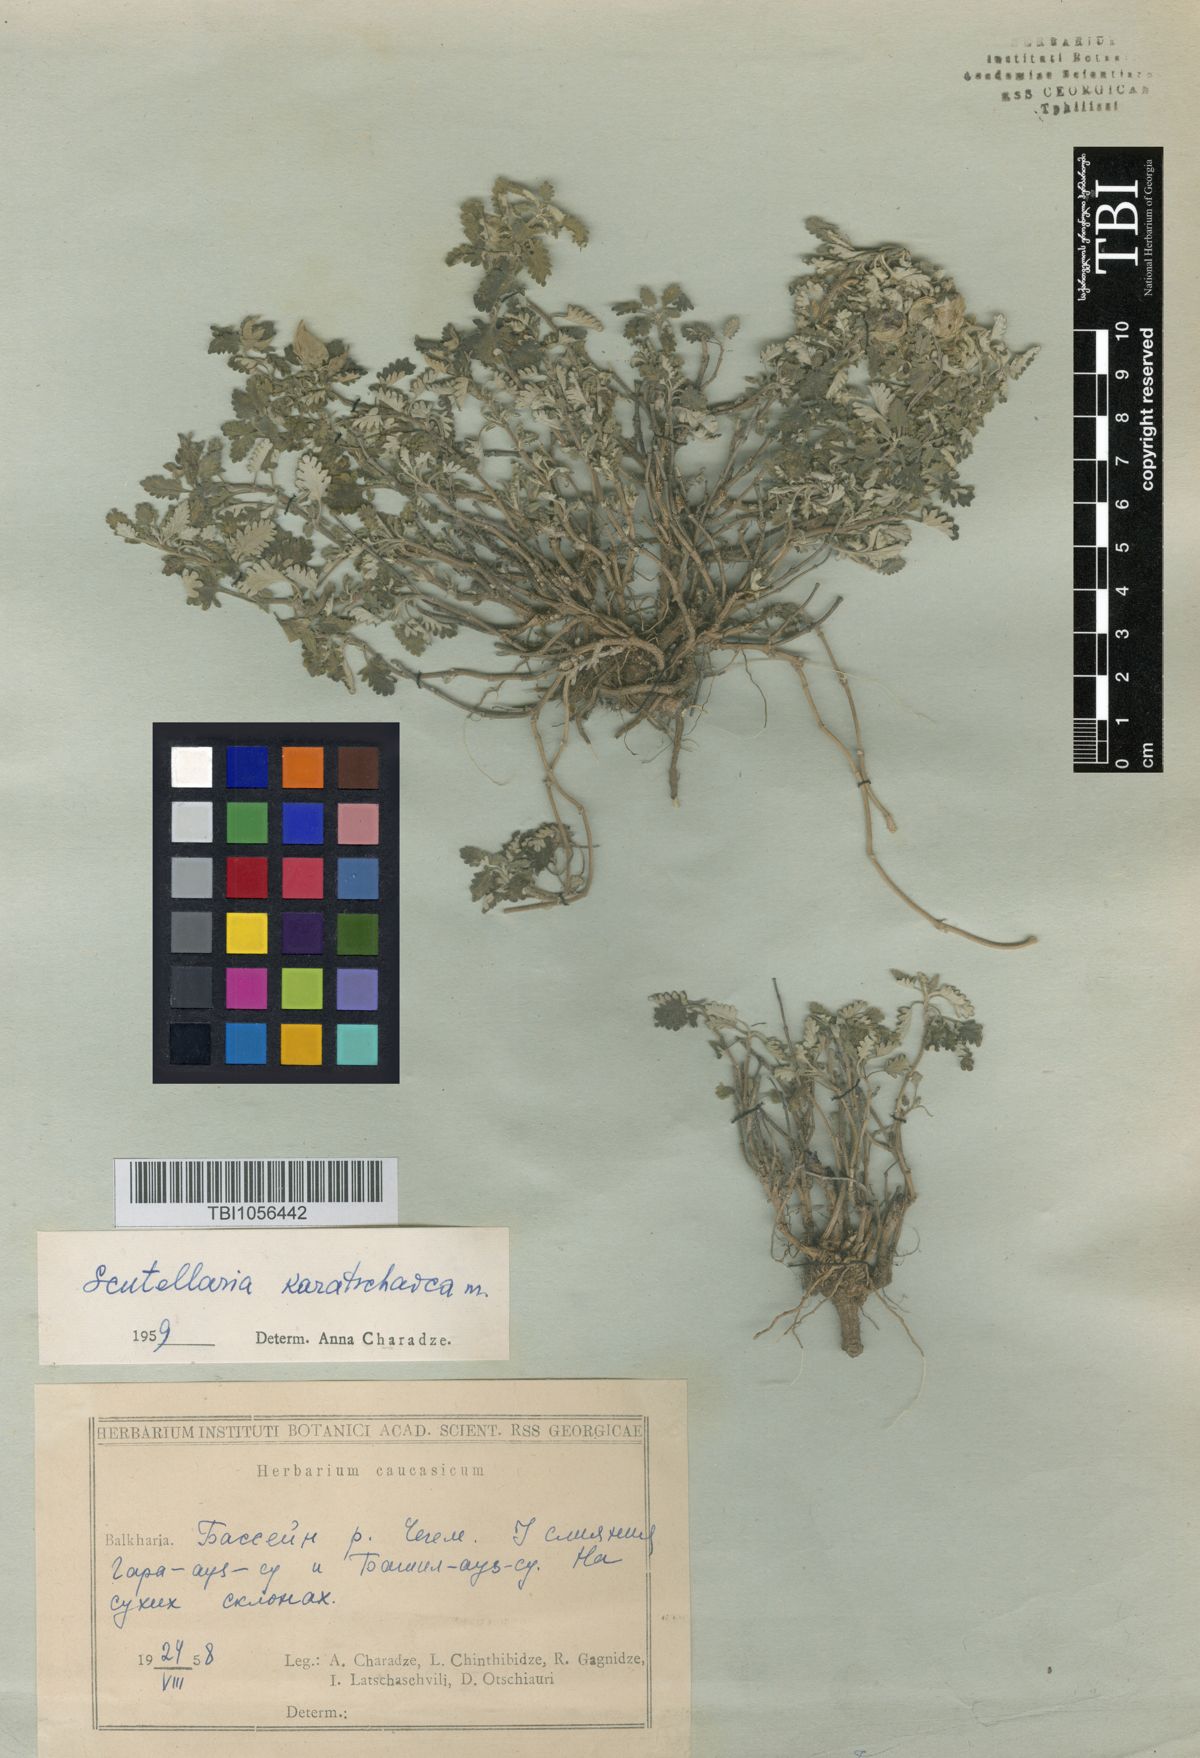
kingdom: Plantae
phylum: Tracheophyta
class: Magnoliopsida
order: Lamiales
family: Lamiaceae
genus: Scutellaria
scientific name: Scutellaria orientalis
